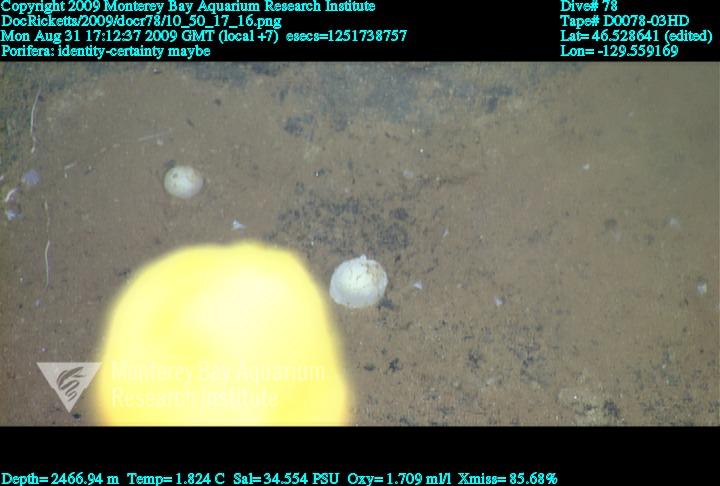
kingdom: Animalia
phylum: Porifera
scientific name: Porifera
